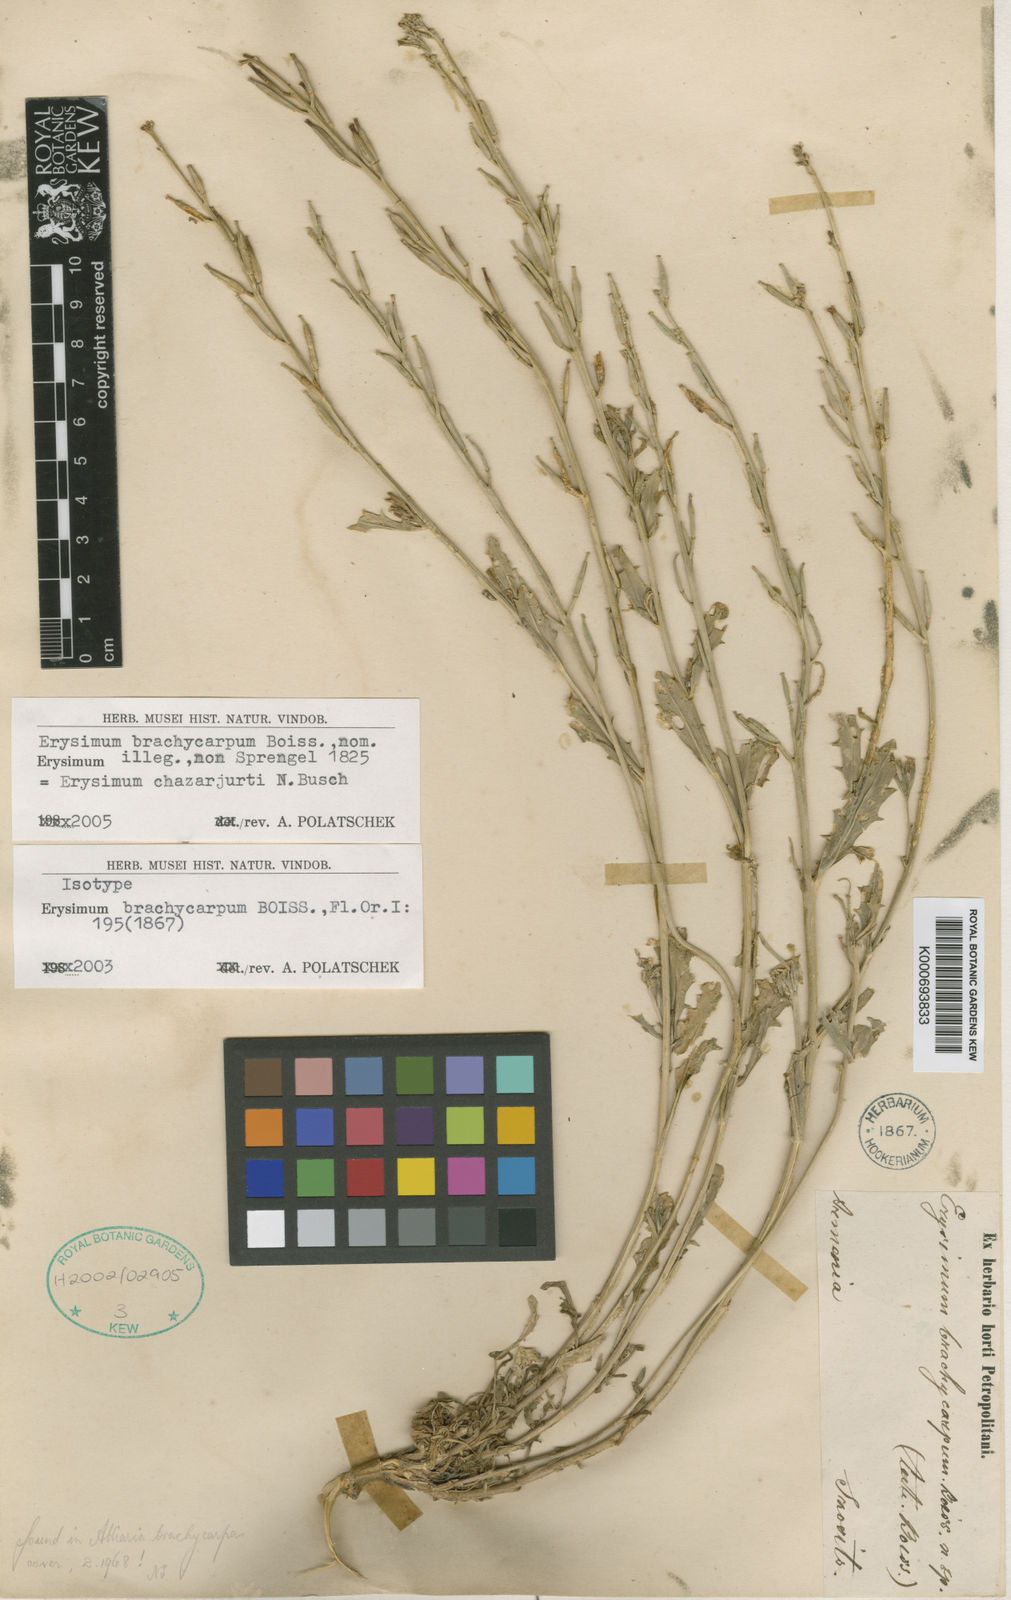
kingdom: Plantae
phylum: Tracheophyta
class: Magnoliopsida
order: Brassicales
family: Brassicaceae
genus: Erysimum
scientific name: Erysimum chazarjurti
